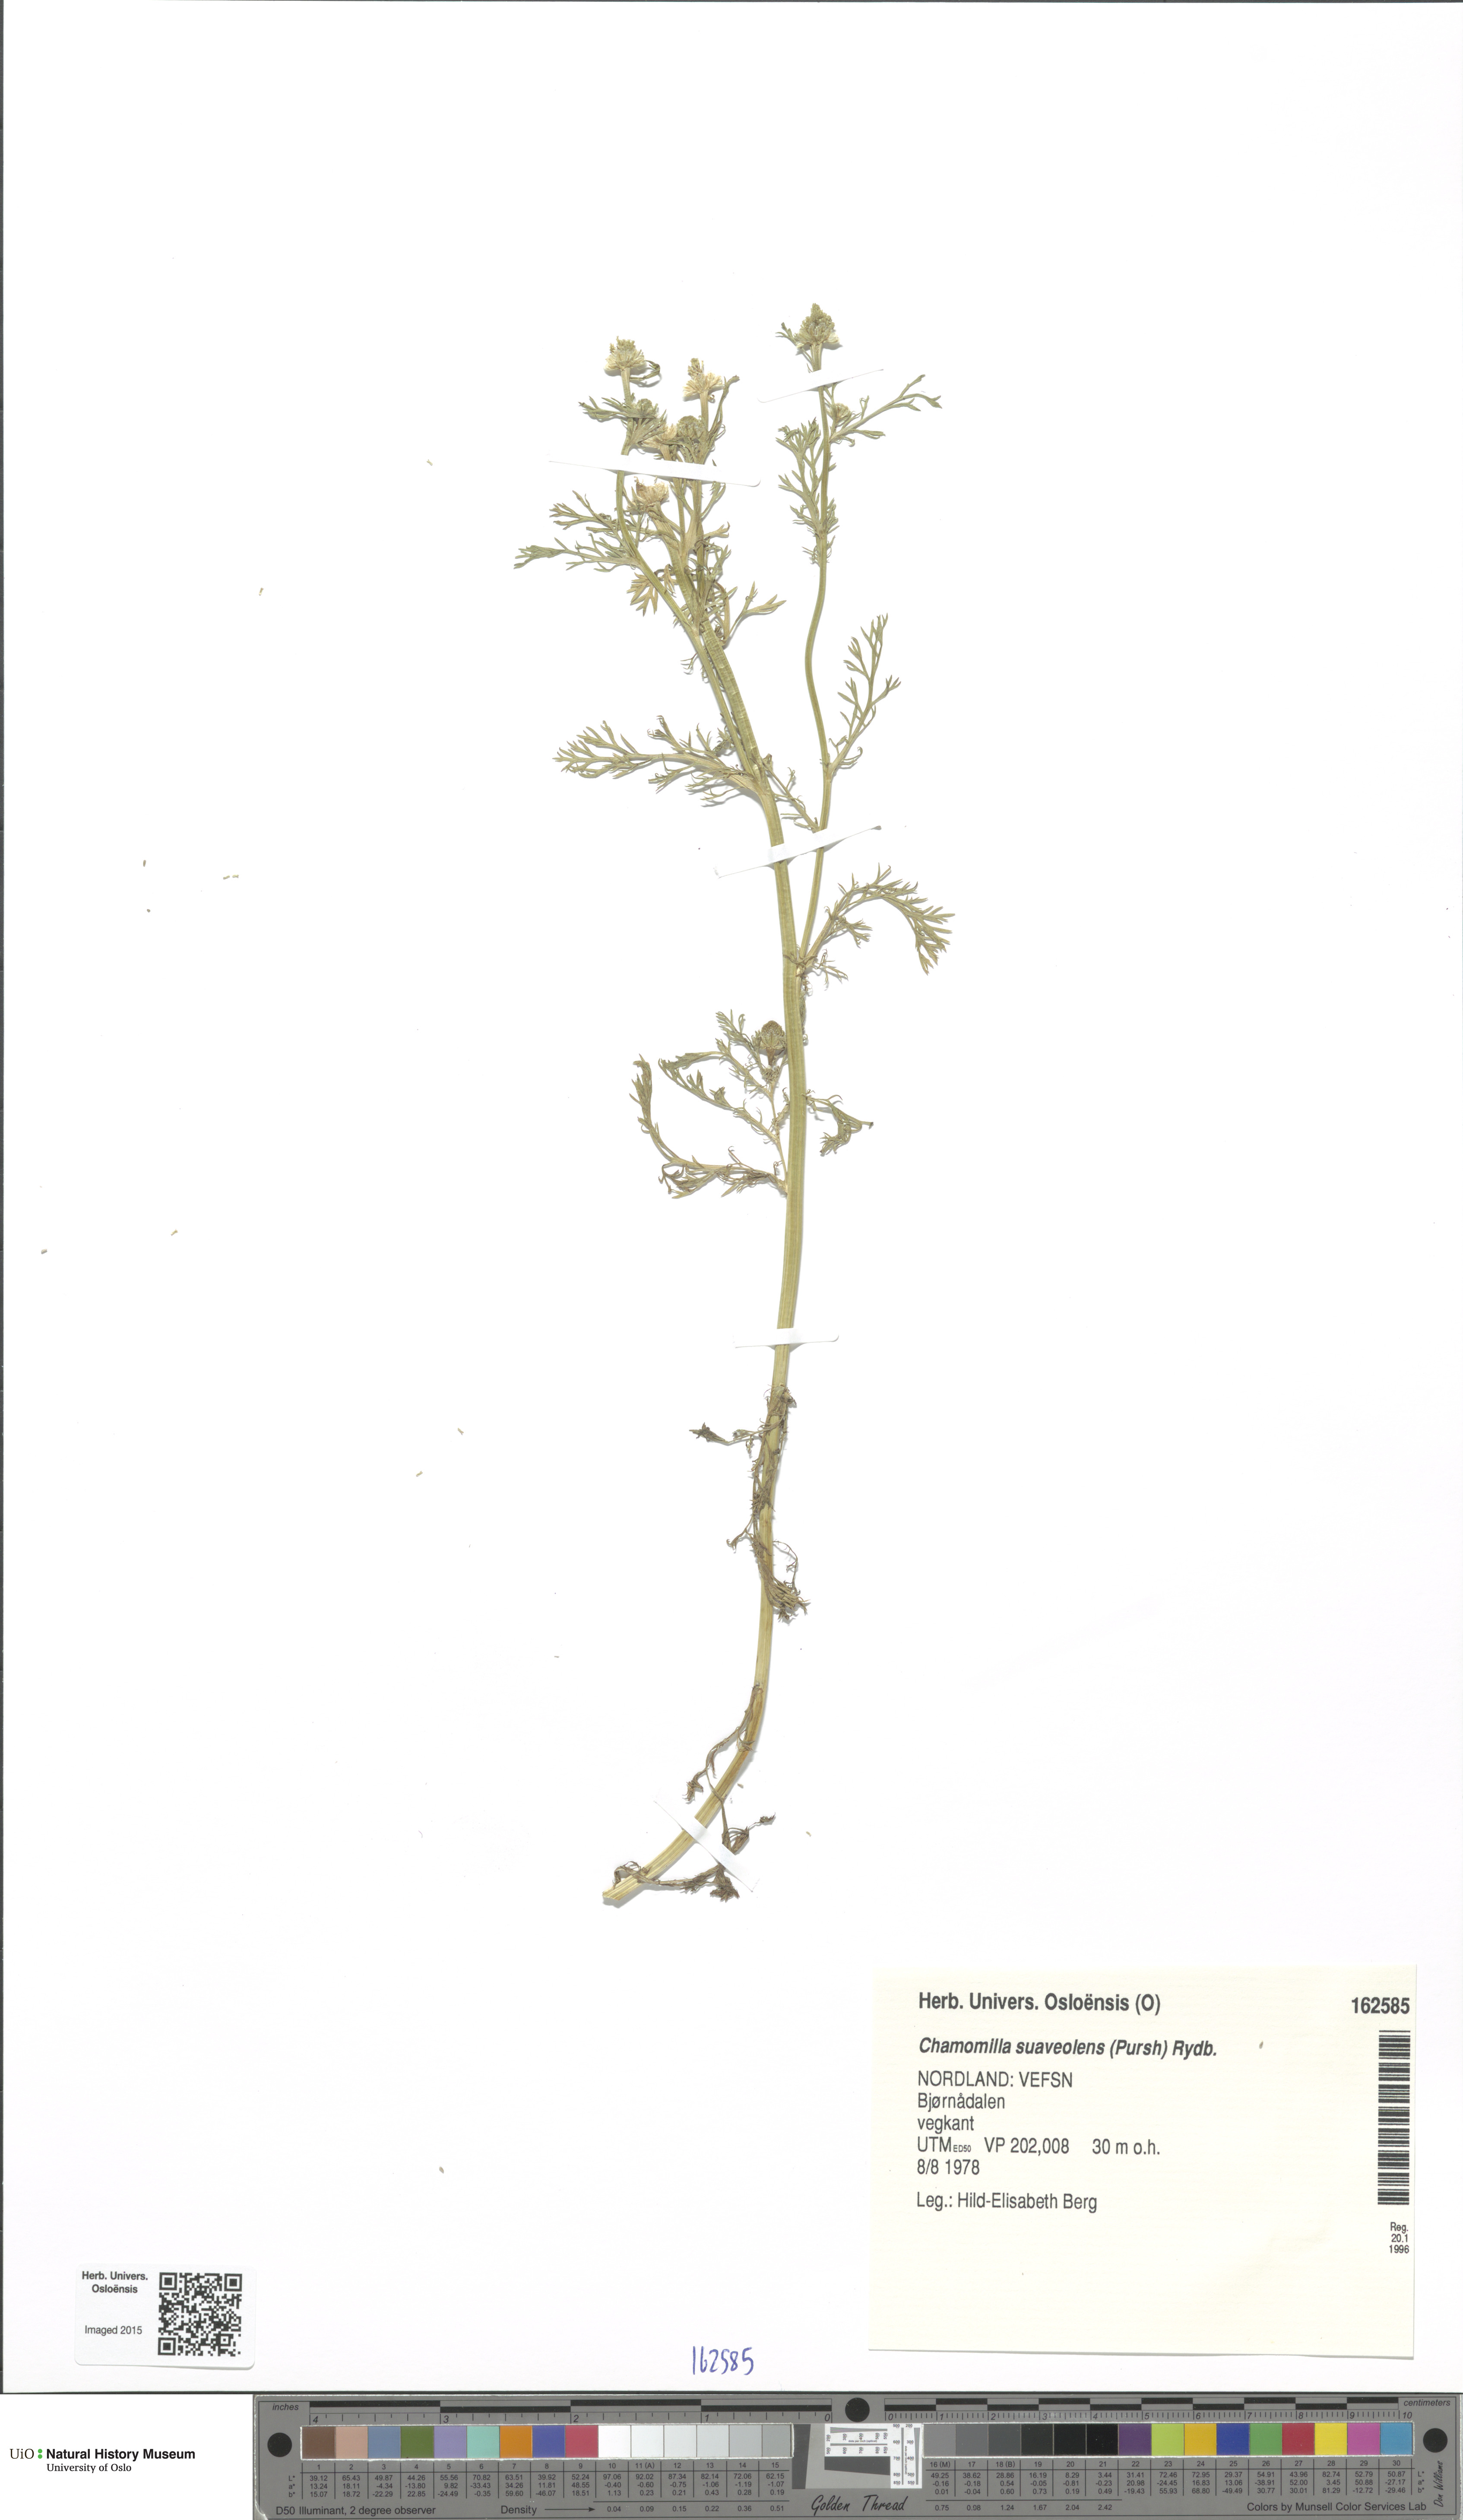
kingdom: Plantae
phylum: Tracheophyta
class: Magnoliopsida
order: Asterales
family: Asteraceae
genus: Matricaria
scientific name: Matricaria discoidea
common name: Disc mayweed
